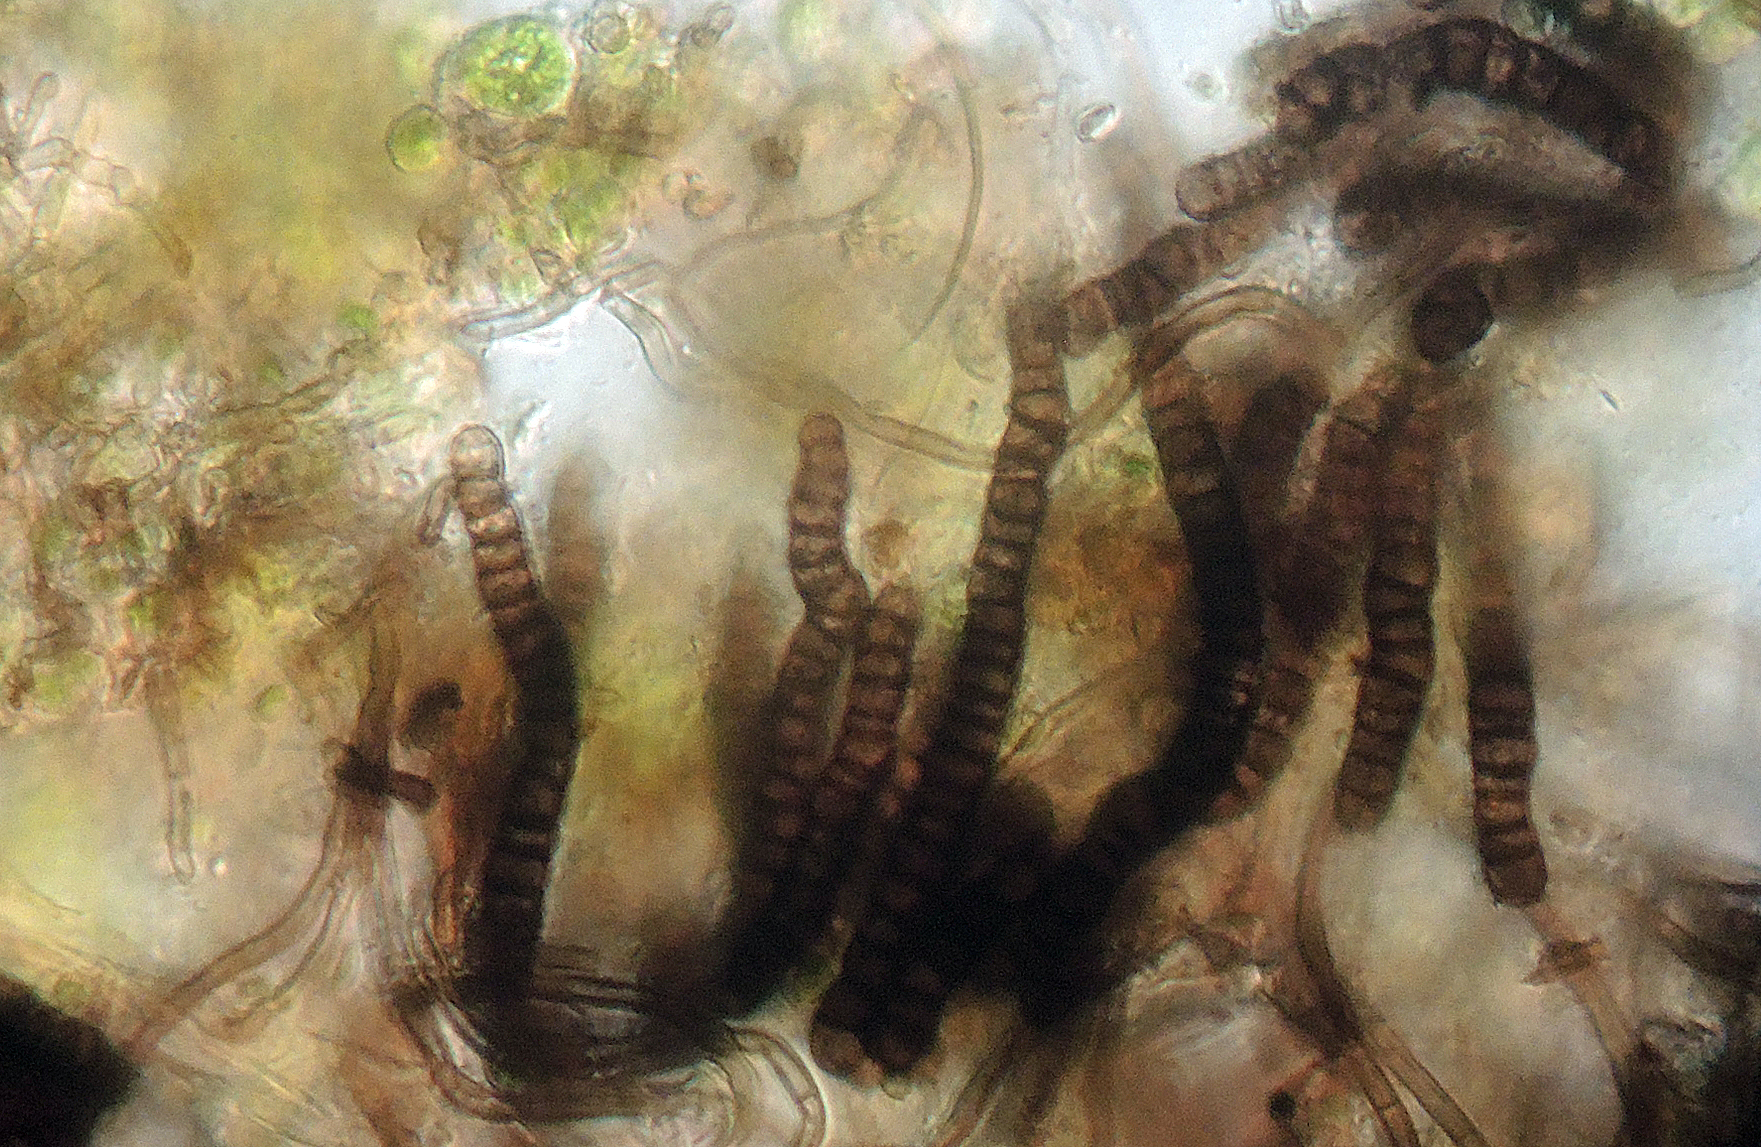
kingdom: Fungi
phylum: Ascomycota
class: Dothideomycetes
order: Mytilinidiales
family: Mytilinidiaceae
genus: Taeniolella
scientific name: Taeniolella stilbospora
